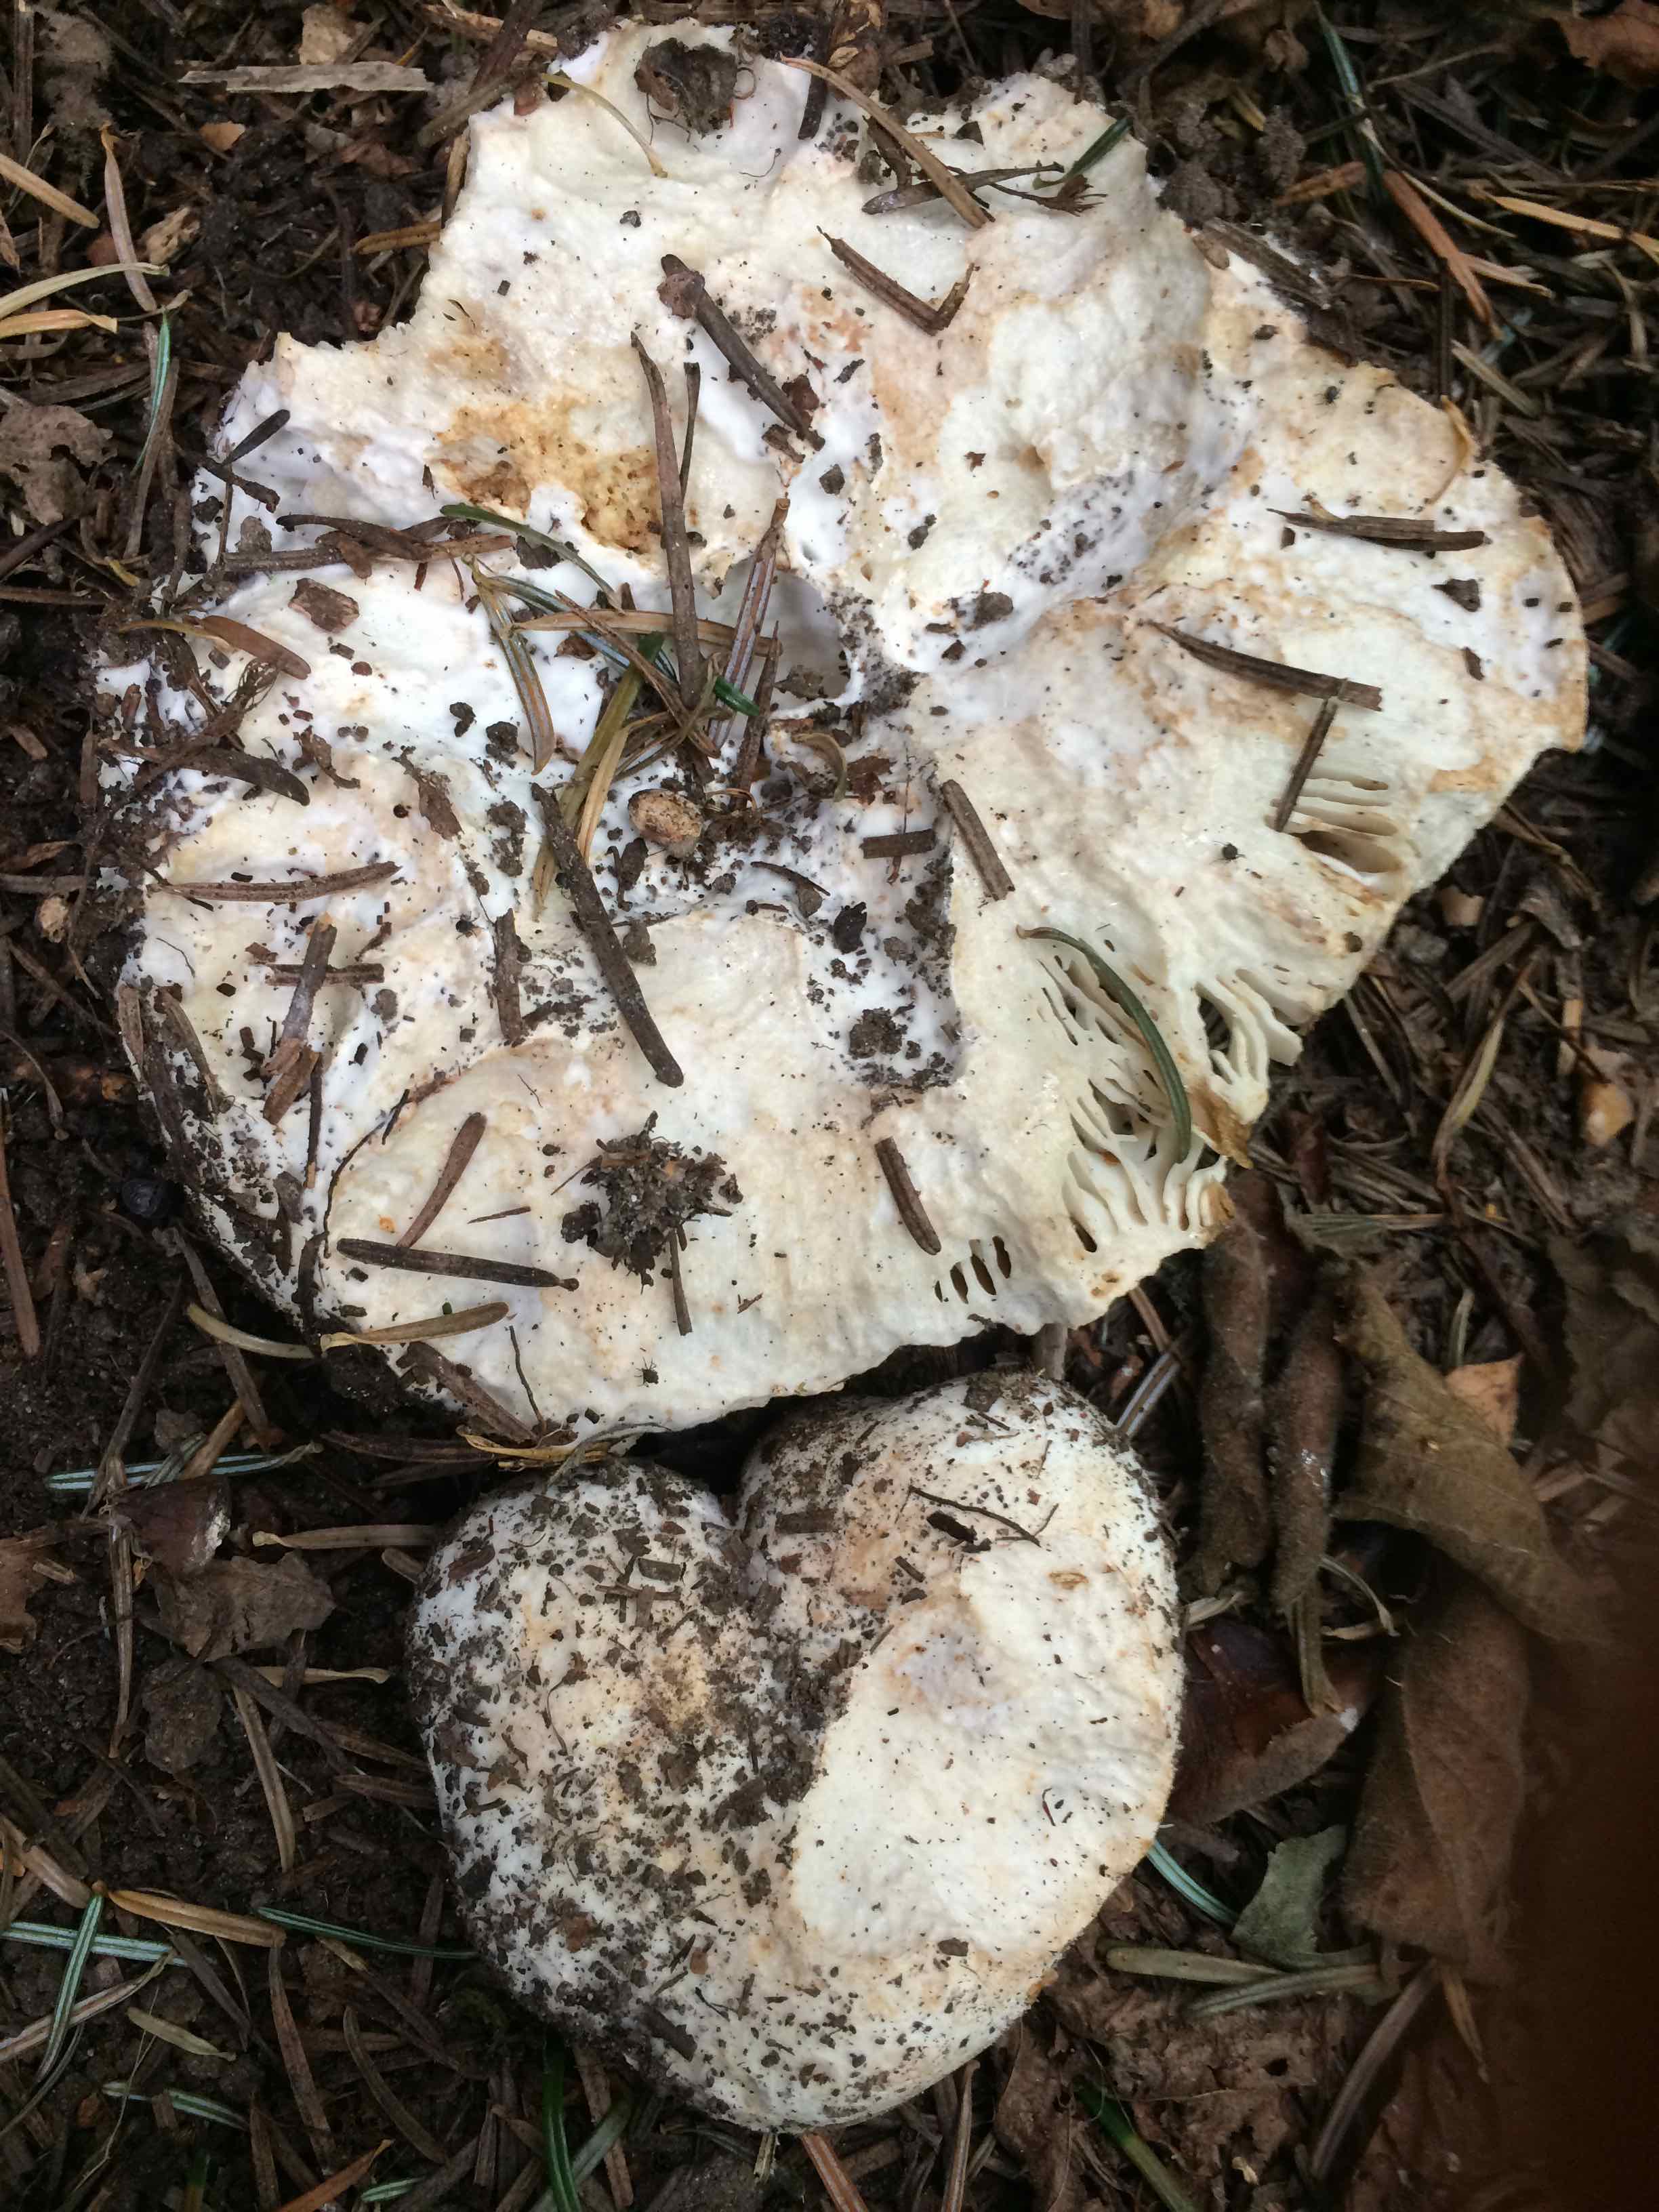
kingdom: Fungi
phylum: Basidiomycota
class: Agaricomycetes
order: Russulales
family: Russulaceae
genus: Russula
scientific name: Russula chloroides
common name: grønhalset tragt-skørhat
